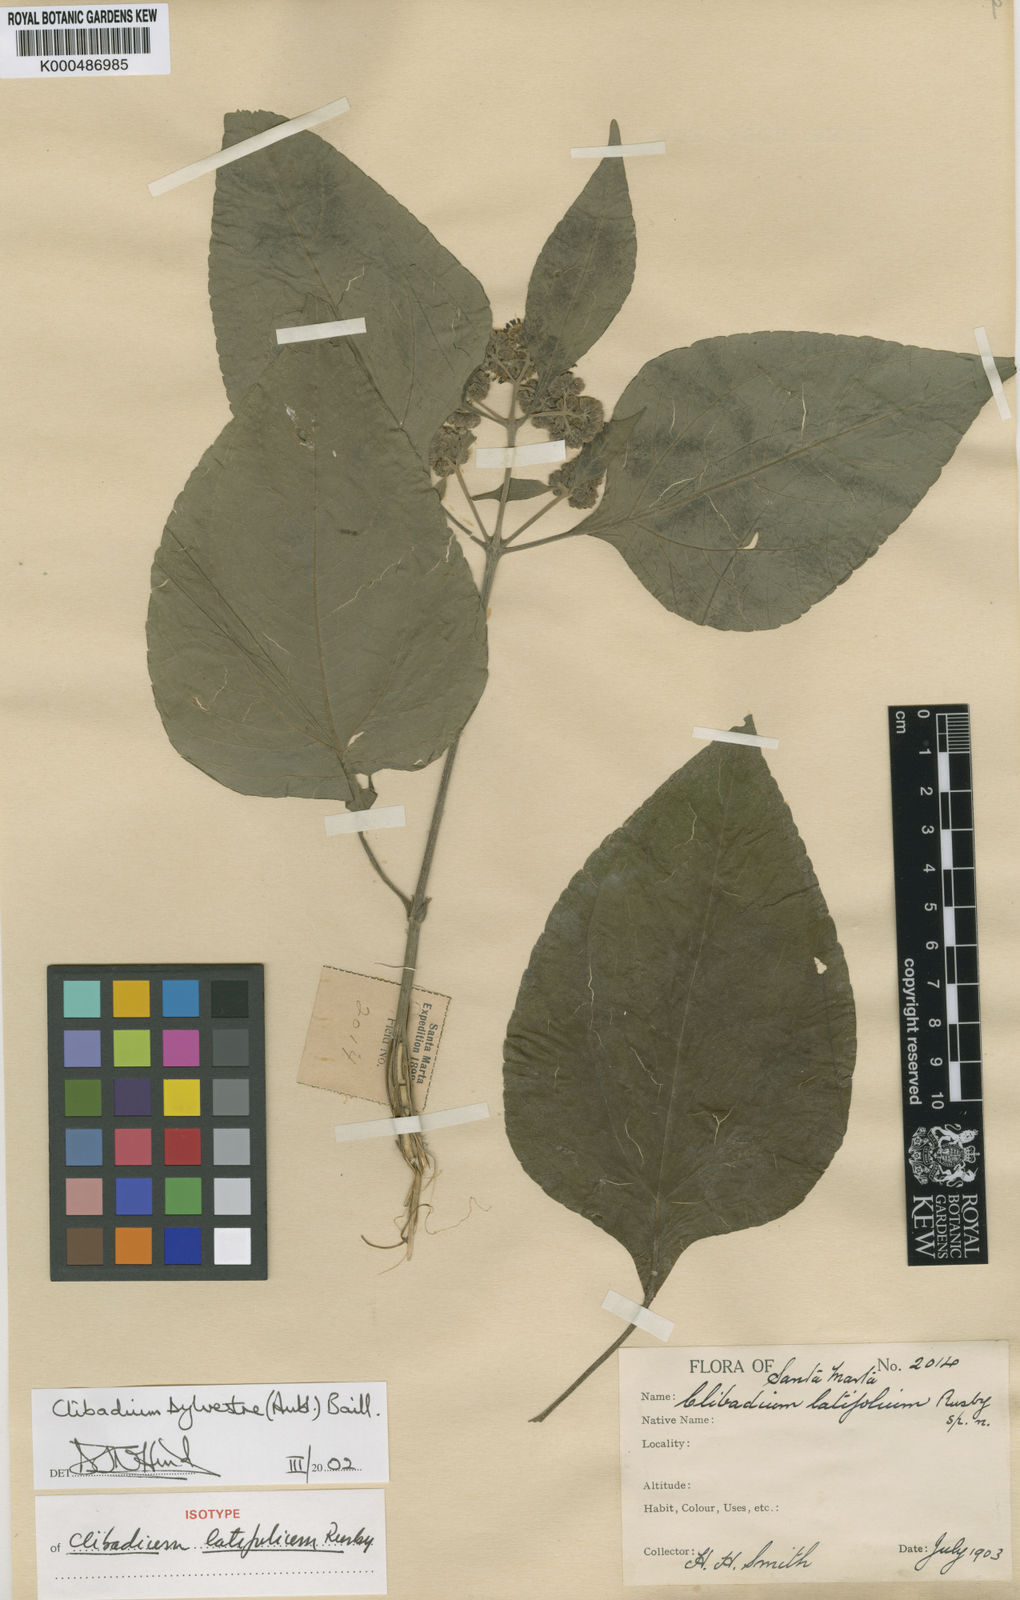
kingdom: Plantae
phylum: Tracheophyta
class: Magnoliopsida
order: Asterales
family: Asteraceae
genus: Clibadium
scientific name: Clibadium sylvestre
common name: Barbasco
